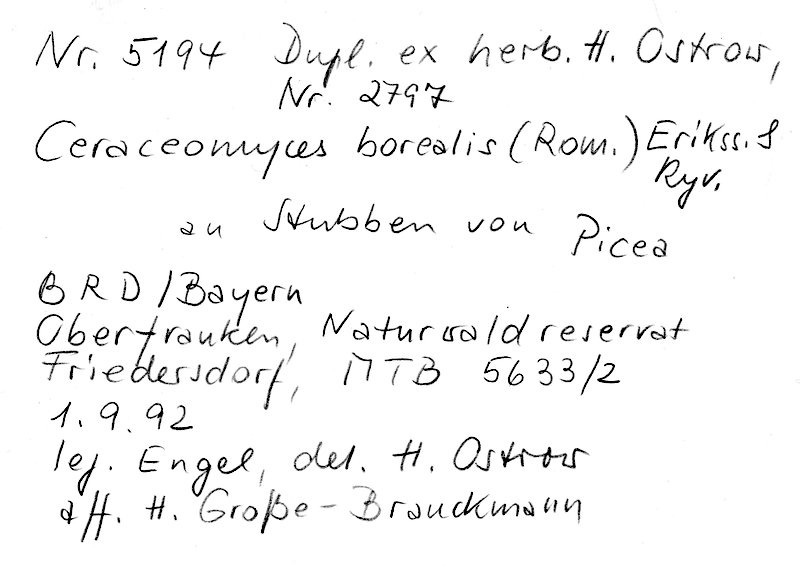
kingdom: Plantae
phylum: Tracheophyta
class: Pinopsida
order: Pinales
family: Pinaceae
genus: Picea
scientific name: Picea
